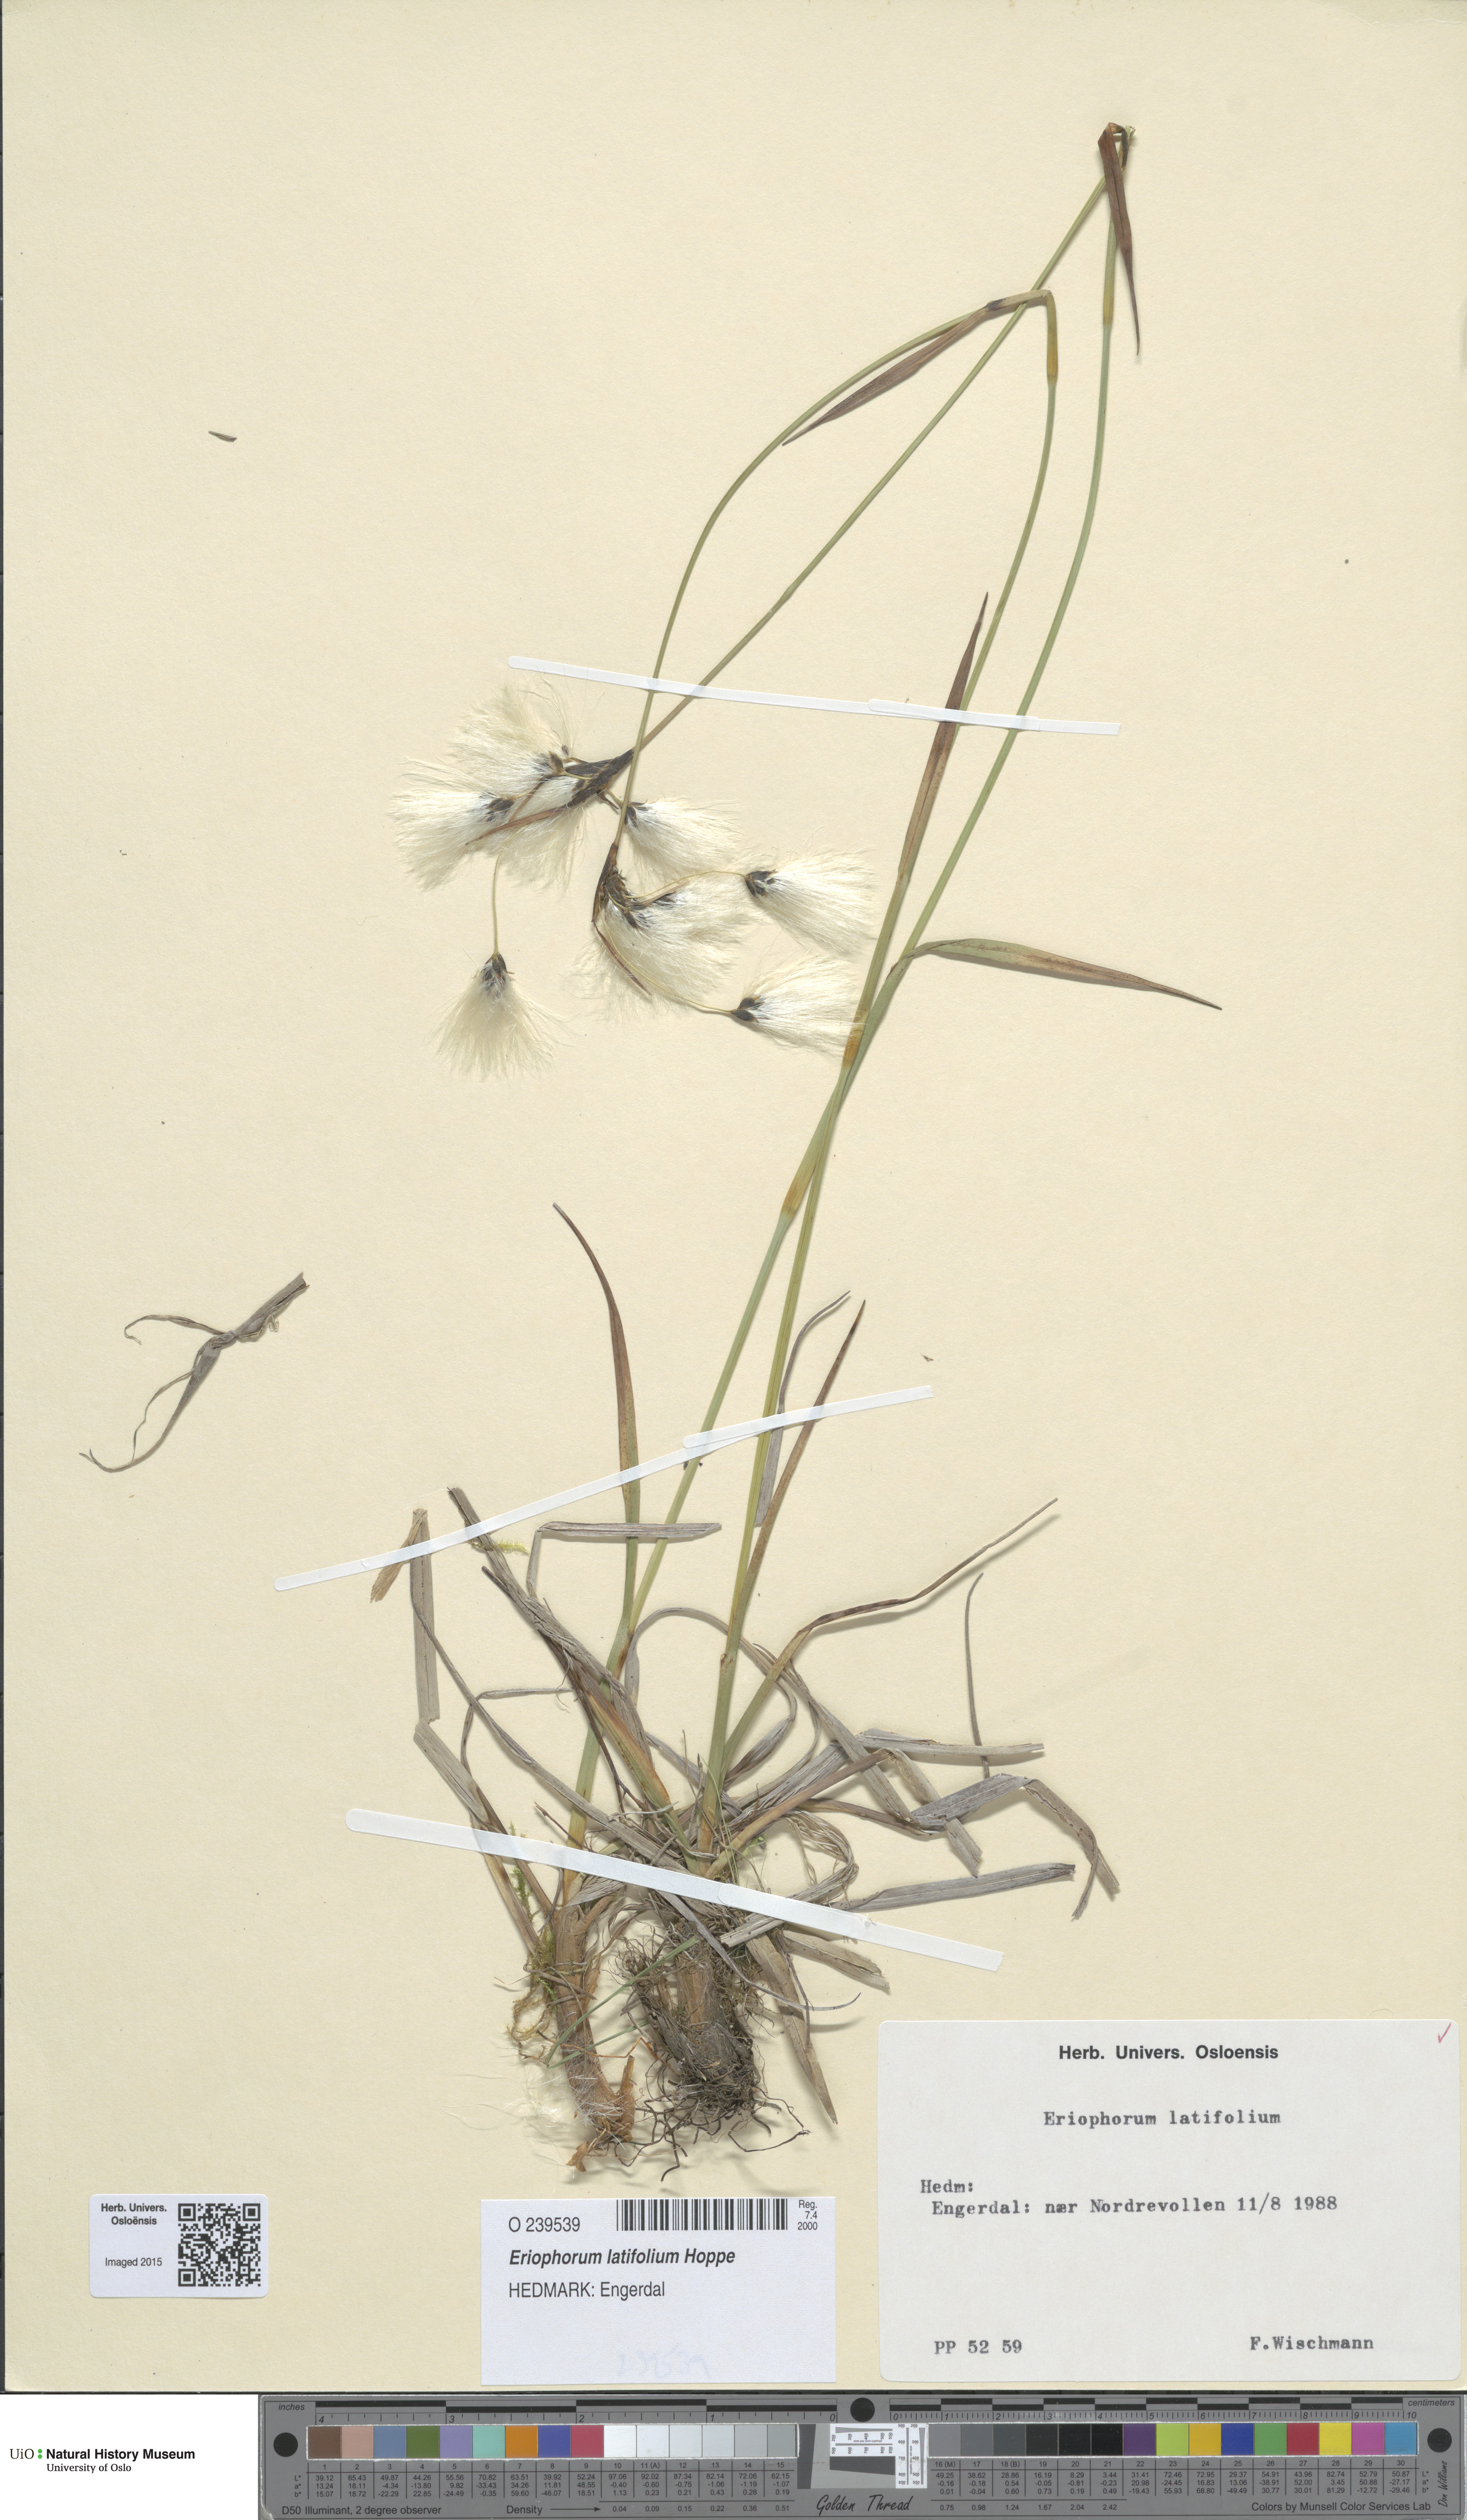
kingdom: Plantae
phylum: Tracheophyta
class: Liliopsida
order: Poales
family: Cyperaceae
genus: Eriophorum
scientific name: Eriophorum latifolium
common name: Broad-leaved cottongrass
